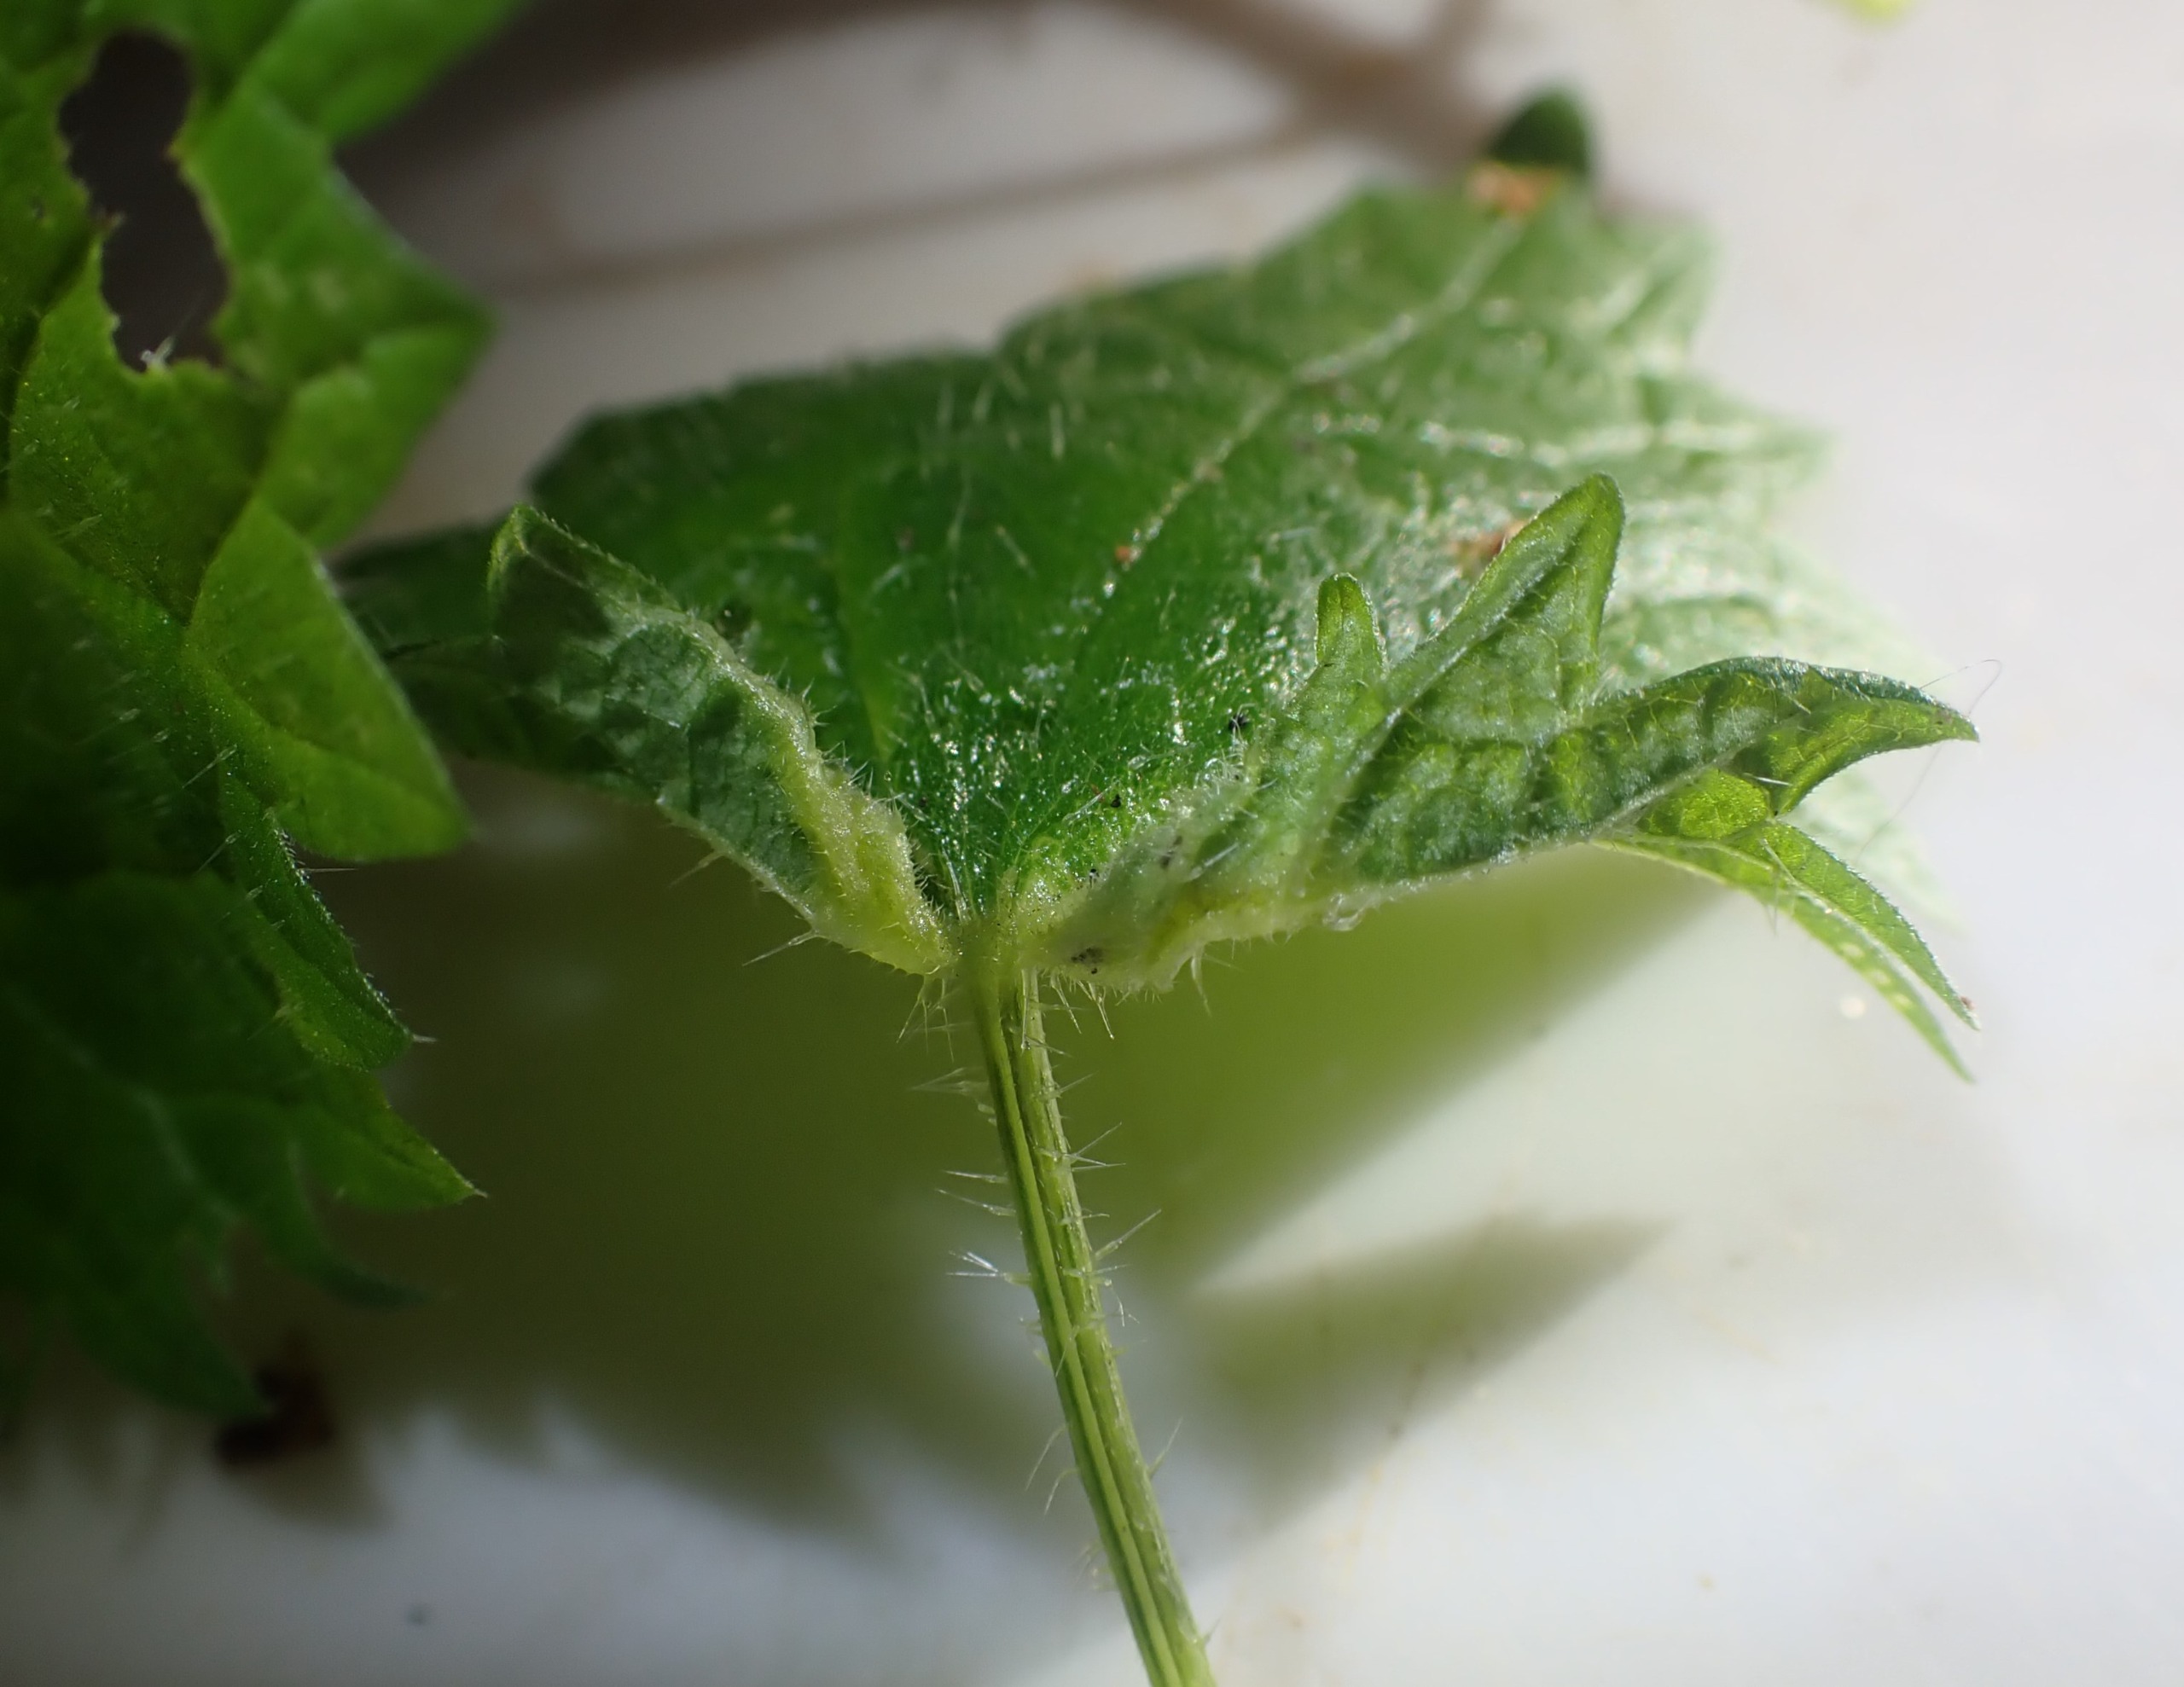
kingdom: Animalia
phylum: Arthropoda
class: Insecta
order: Diptera
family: Cecidomyiidae
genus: Dasineura
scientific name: Dasineura dioicae
